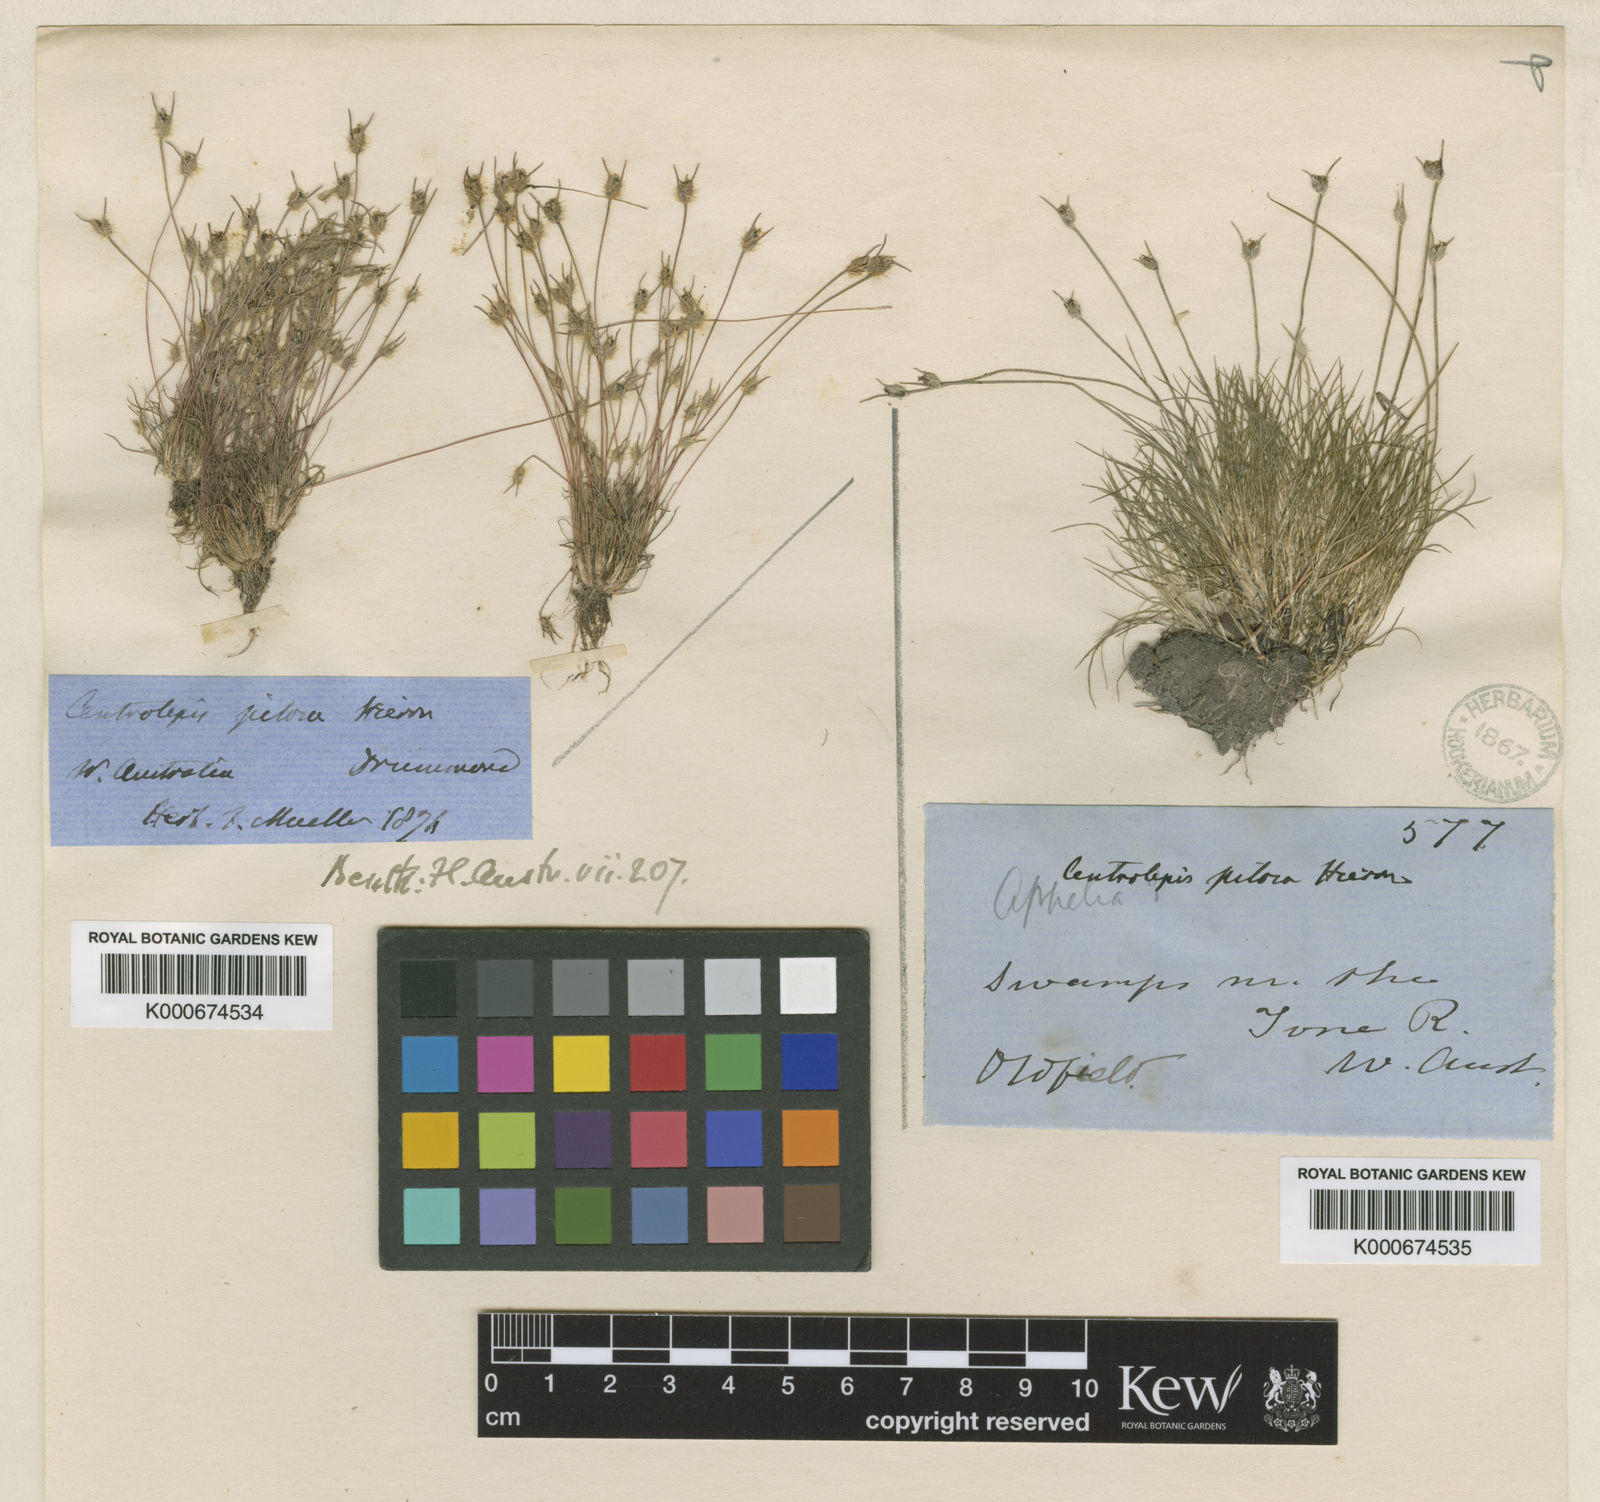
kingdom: Plantae
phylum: Tracheophyta
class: Liliopsida
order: Poales
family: Restionaceae
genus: Centrolepis
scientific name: Centrolepis pilosa
